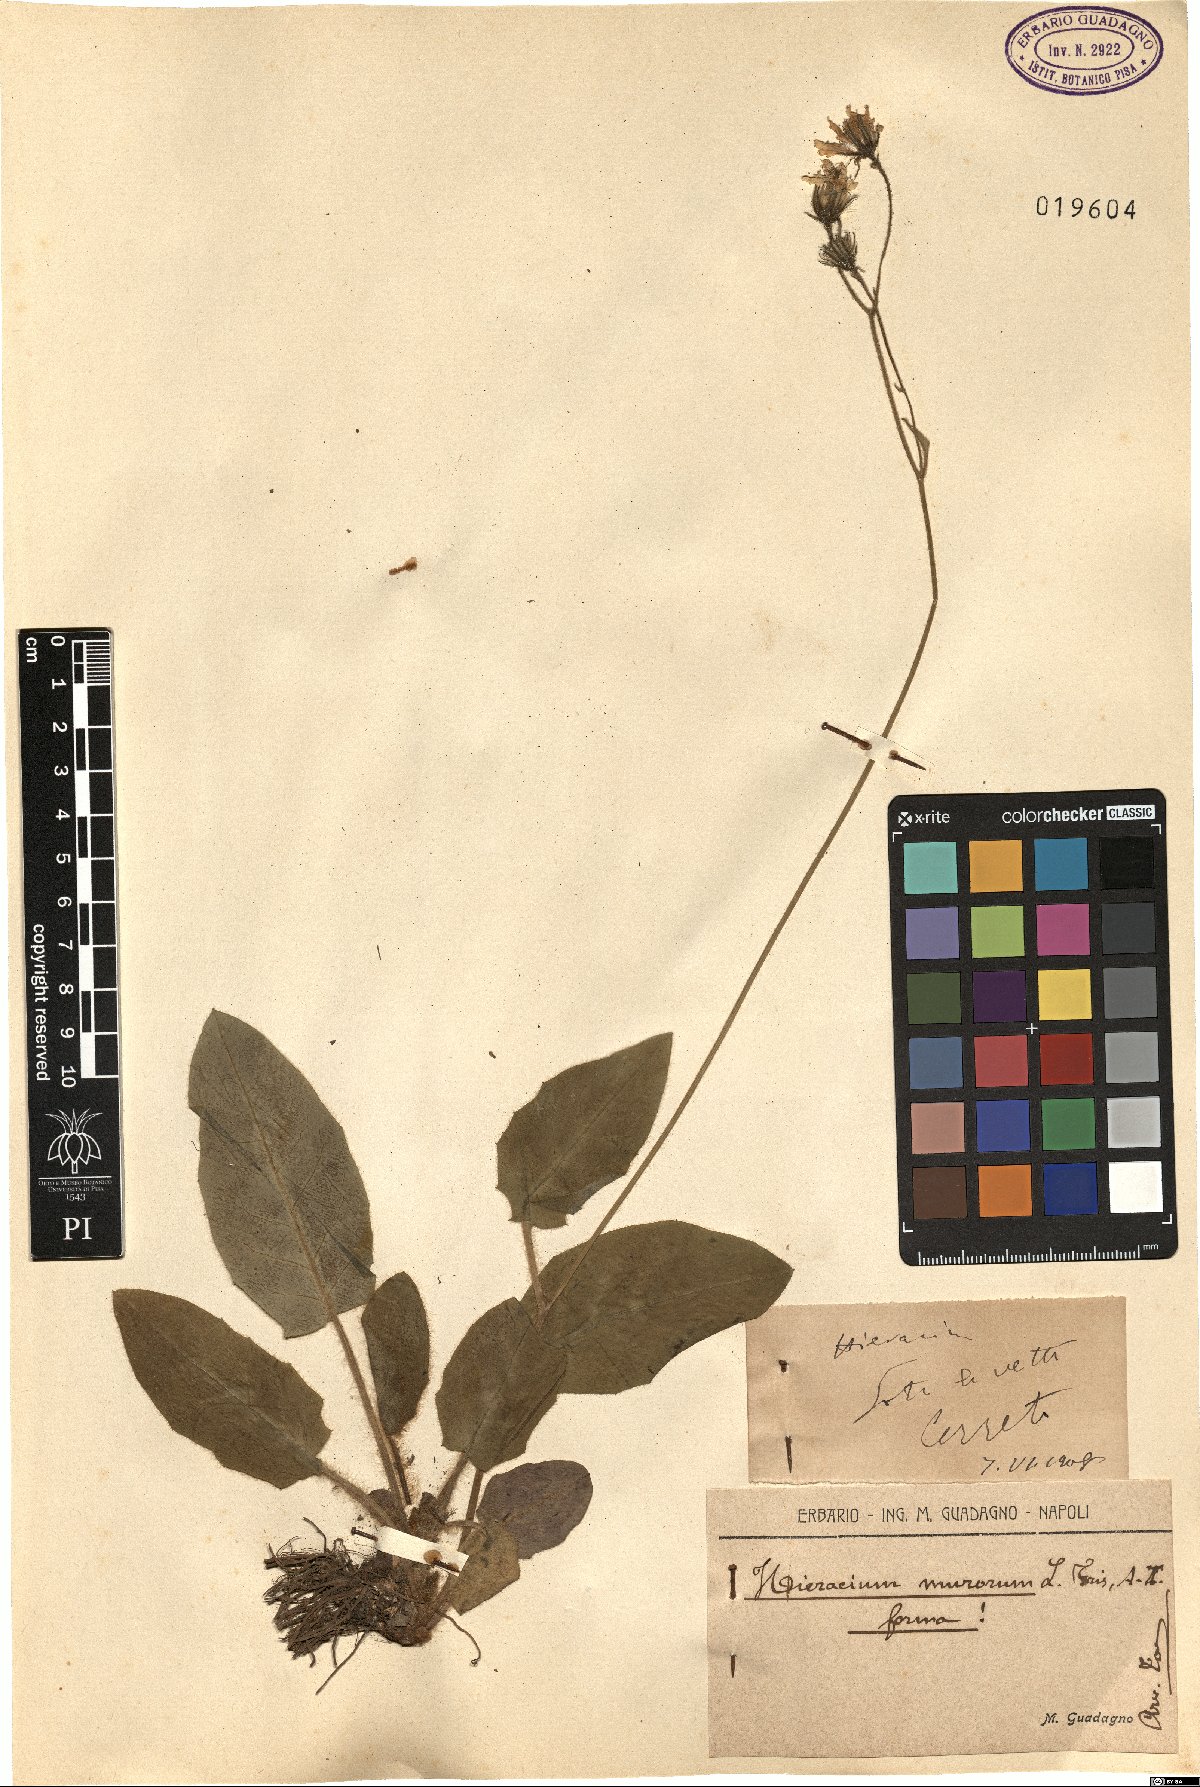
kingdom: Plantae
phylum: Tracheophyta
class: Magnoliopsida
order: Asterales
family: Asteraceae
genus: Hieracium
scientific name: Hieracium murorum
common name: Wall hawkweed
